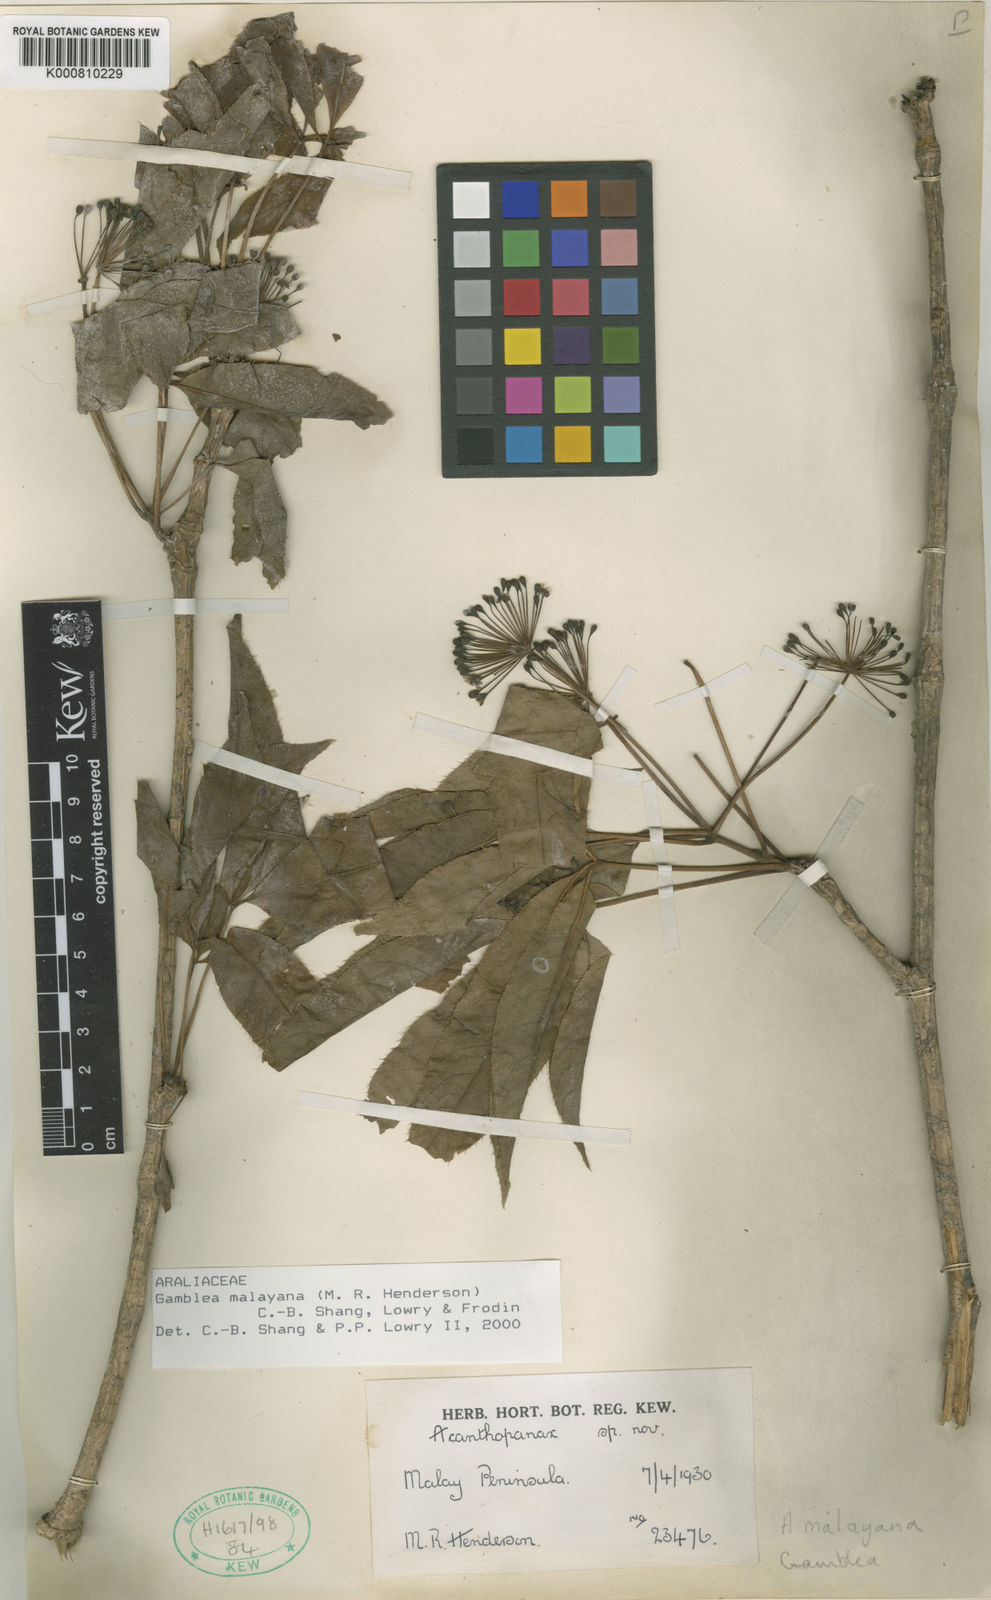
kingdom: Plantae
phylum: Tracheophyta
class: Magnoliopsida
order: Apiales
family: Araliaceae
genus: Gamblea
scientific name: Gamblea malayana
